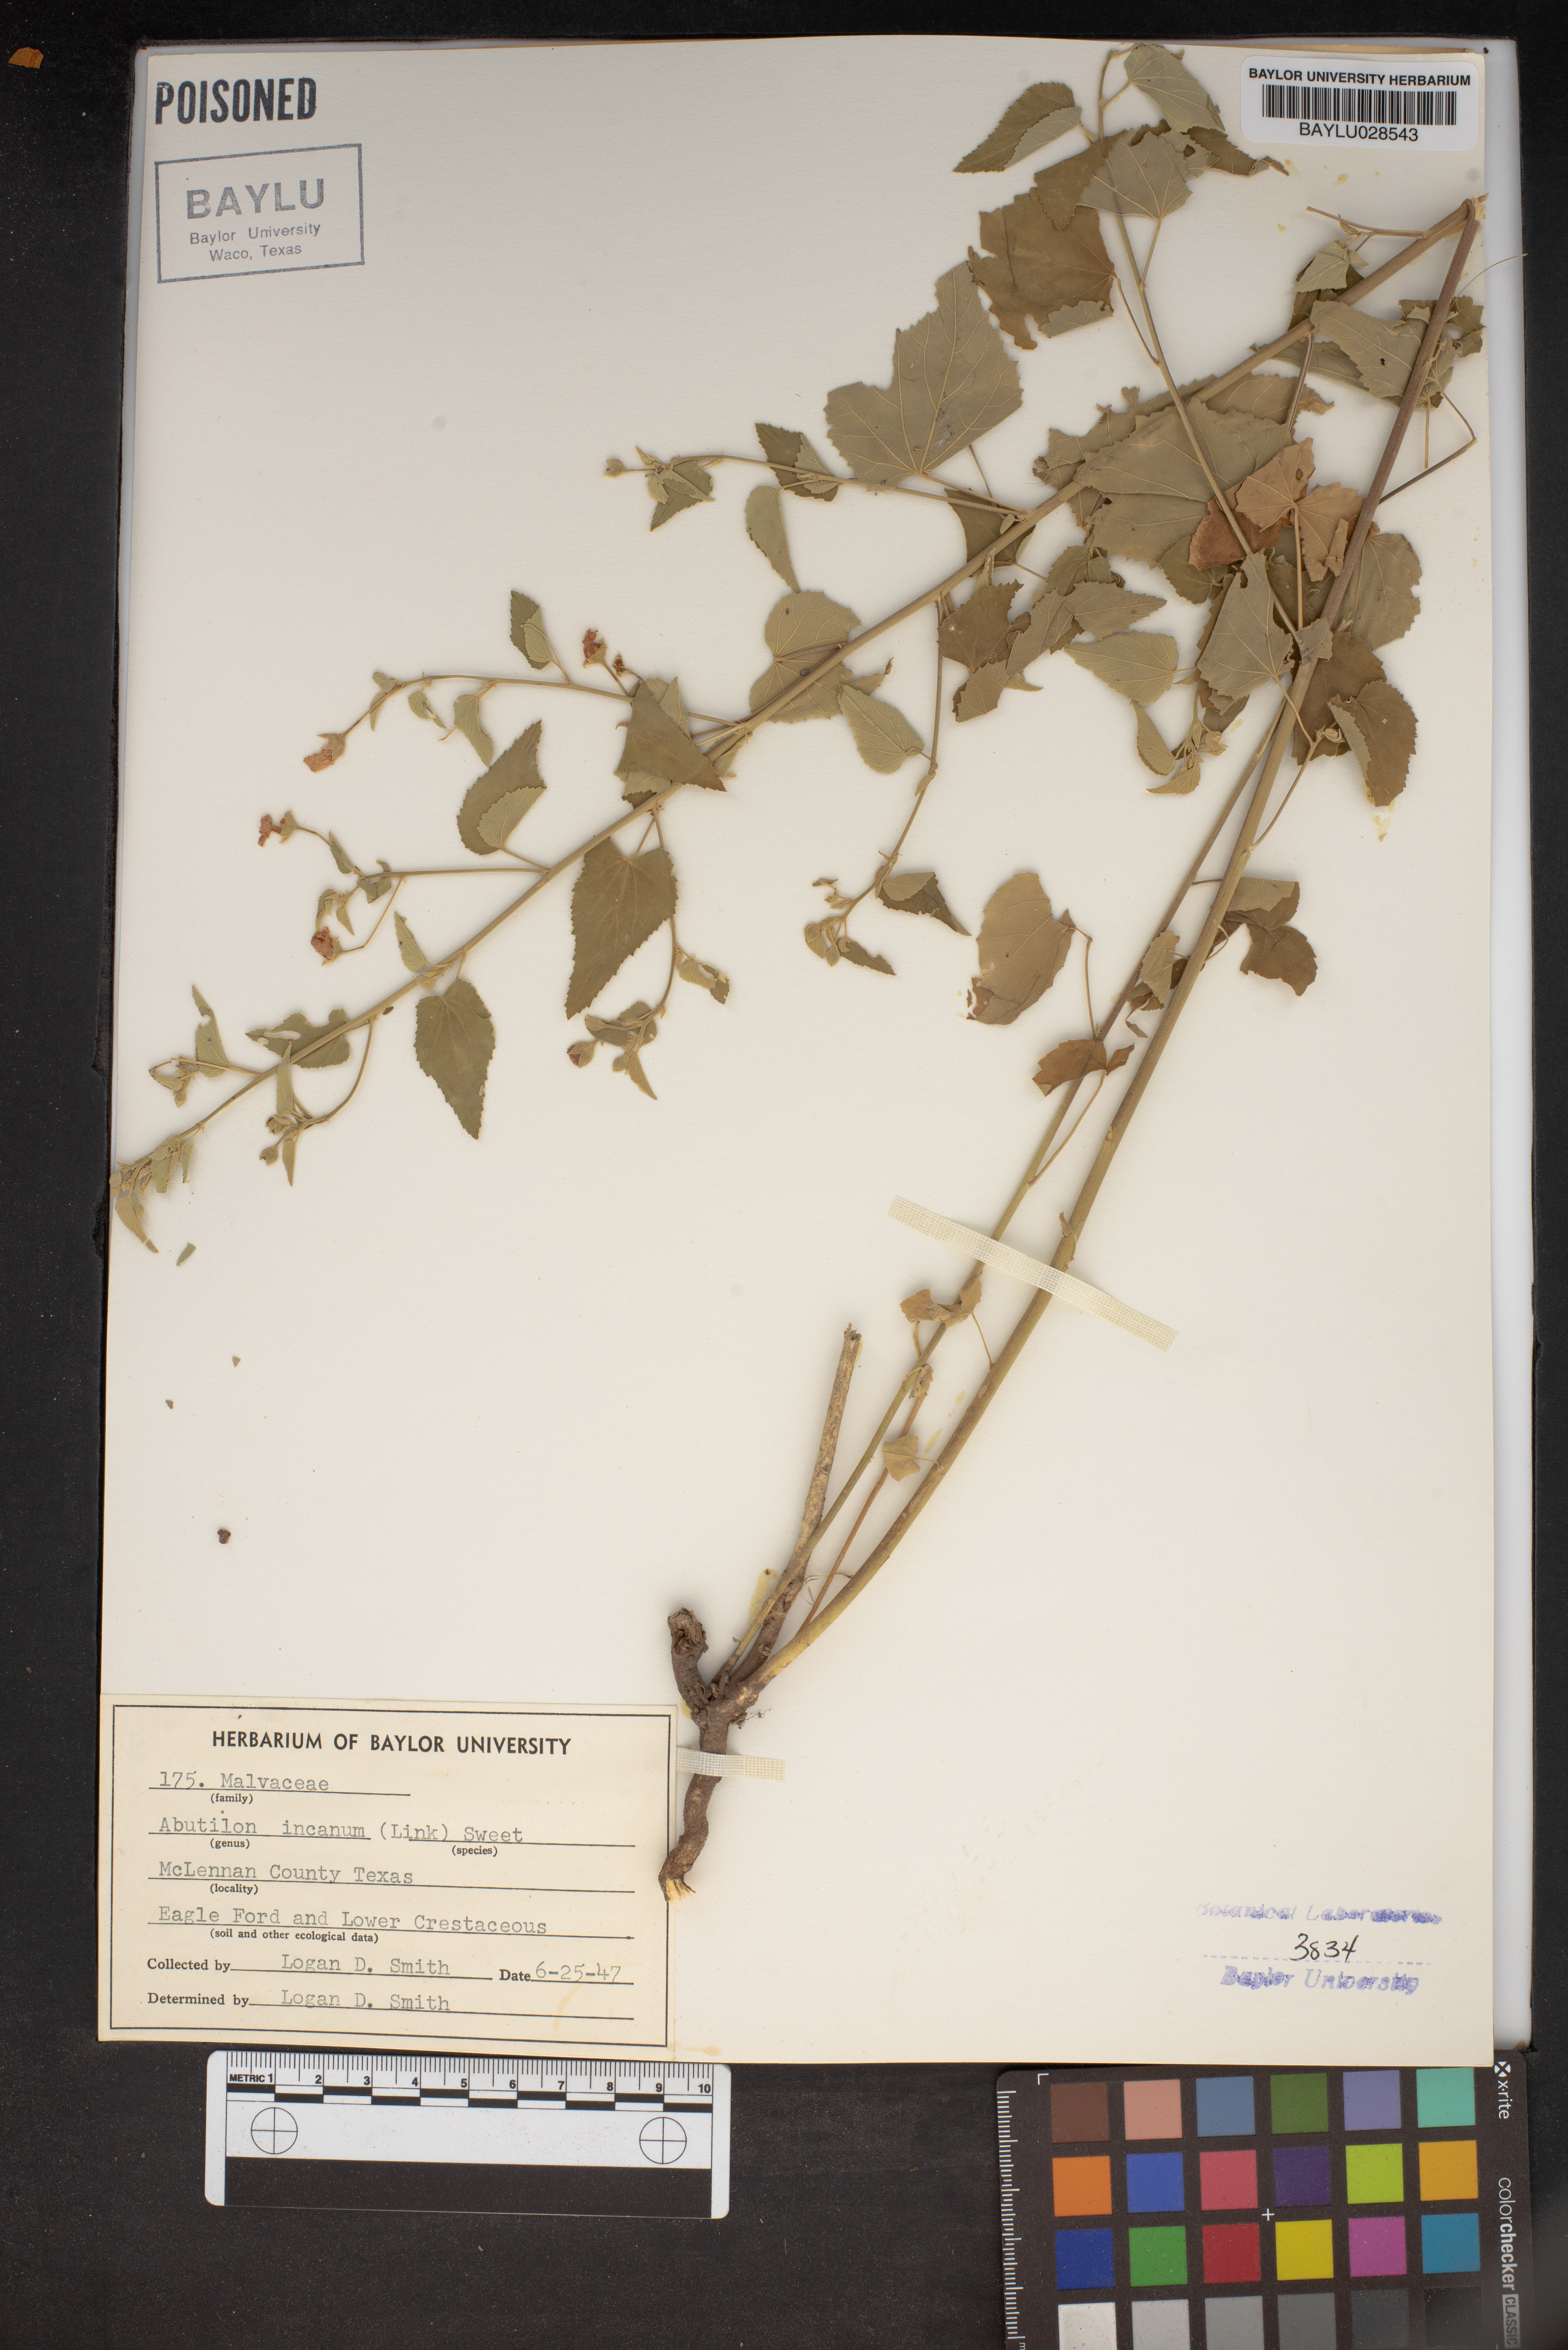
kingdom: Plantae
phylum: Tracheophyta
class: Magnoliopsida
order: Malvales
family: Malvaceae
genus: Abutilon
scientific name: Abutilon incanum
